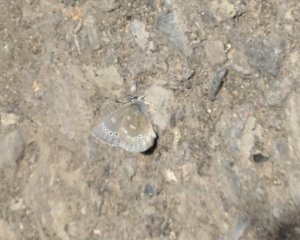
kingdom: Animalia
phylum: Arthropoda
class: Insecta
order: Lepidoptera
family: Lycaenidae
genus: Glaucopsyche
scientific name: Glaucopsyche lygdamus
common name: Silvery Blue
